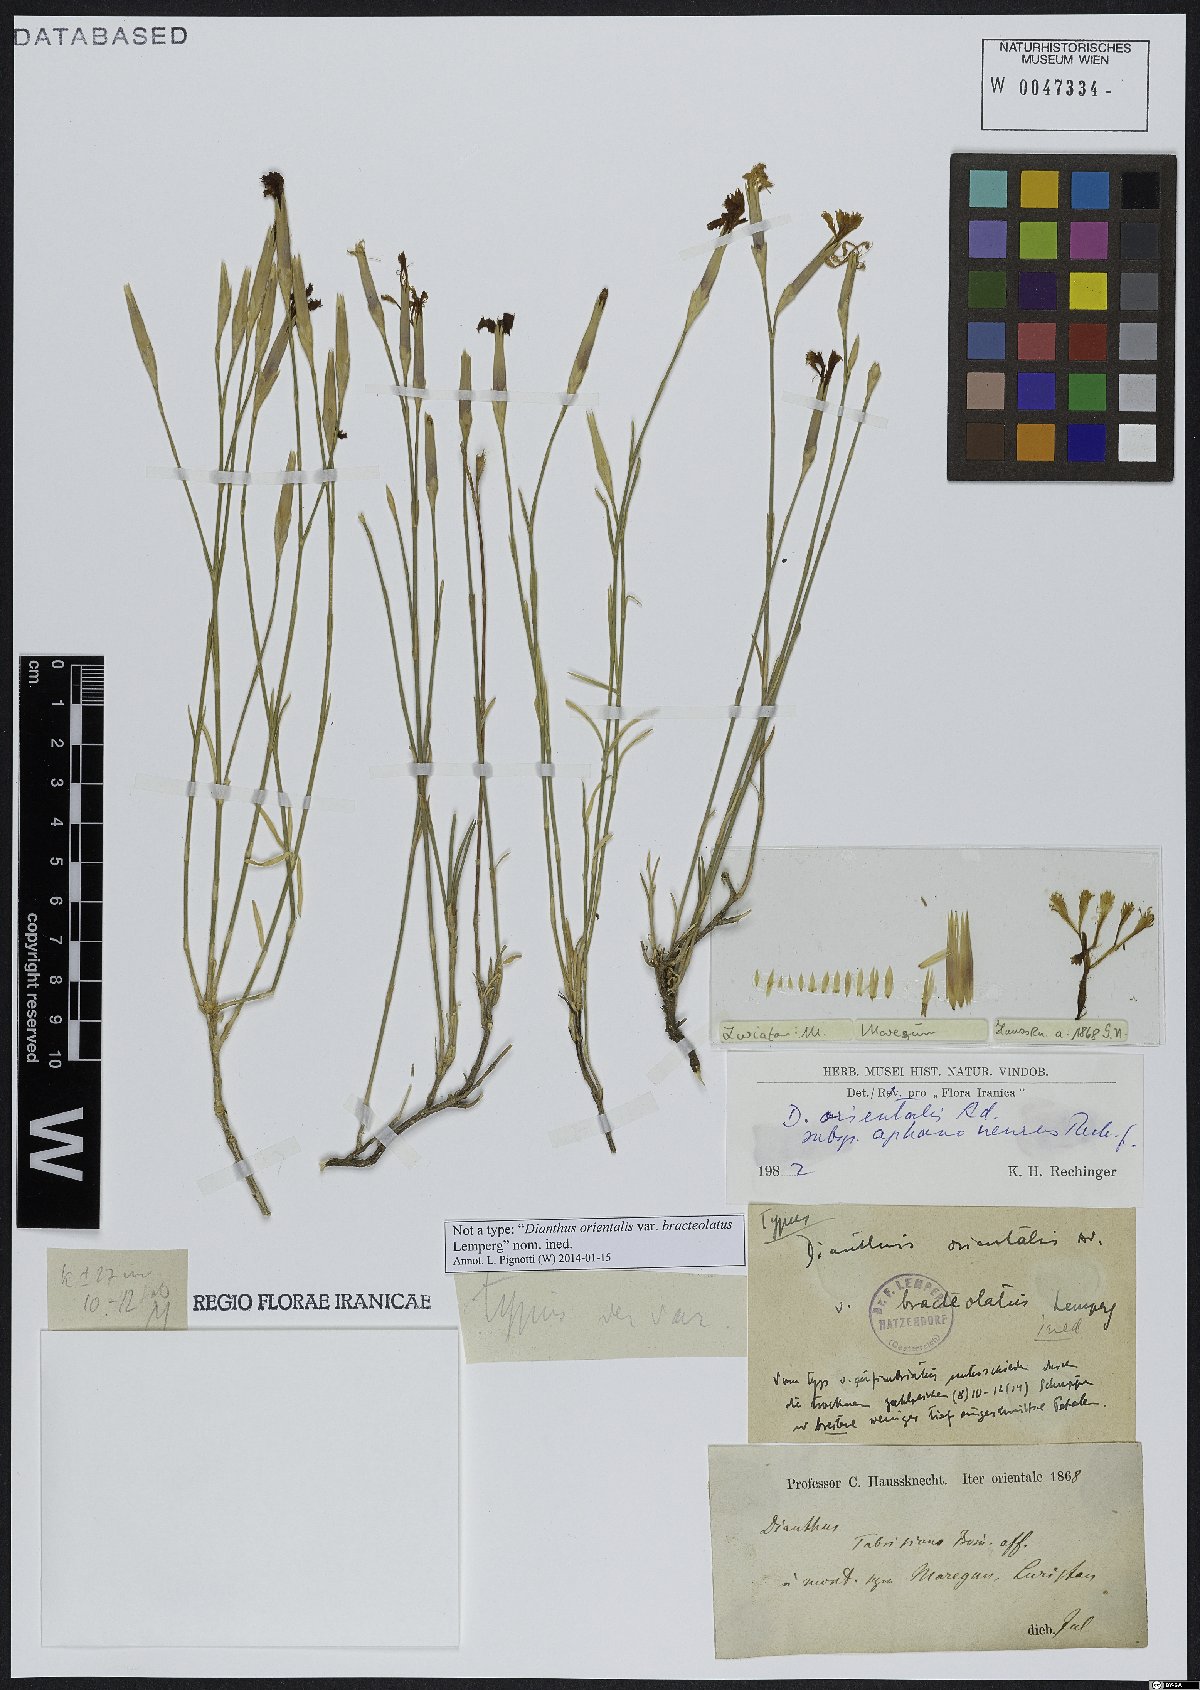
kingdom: Plantae
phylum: Tracheophyta
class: Magnoliopsida
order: Caryophyllales
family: Caryophyllaceae
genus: Dianthus
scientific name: Dianthus orientalis
